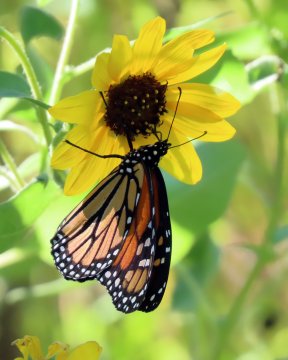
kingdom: Animalia
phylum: Arthropoda
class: Insecta
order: Lepidoptera
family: Nymphalidae
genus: Danaus
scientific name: Danaus plexippus
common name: Monarch
